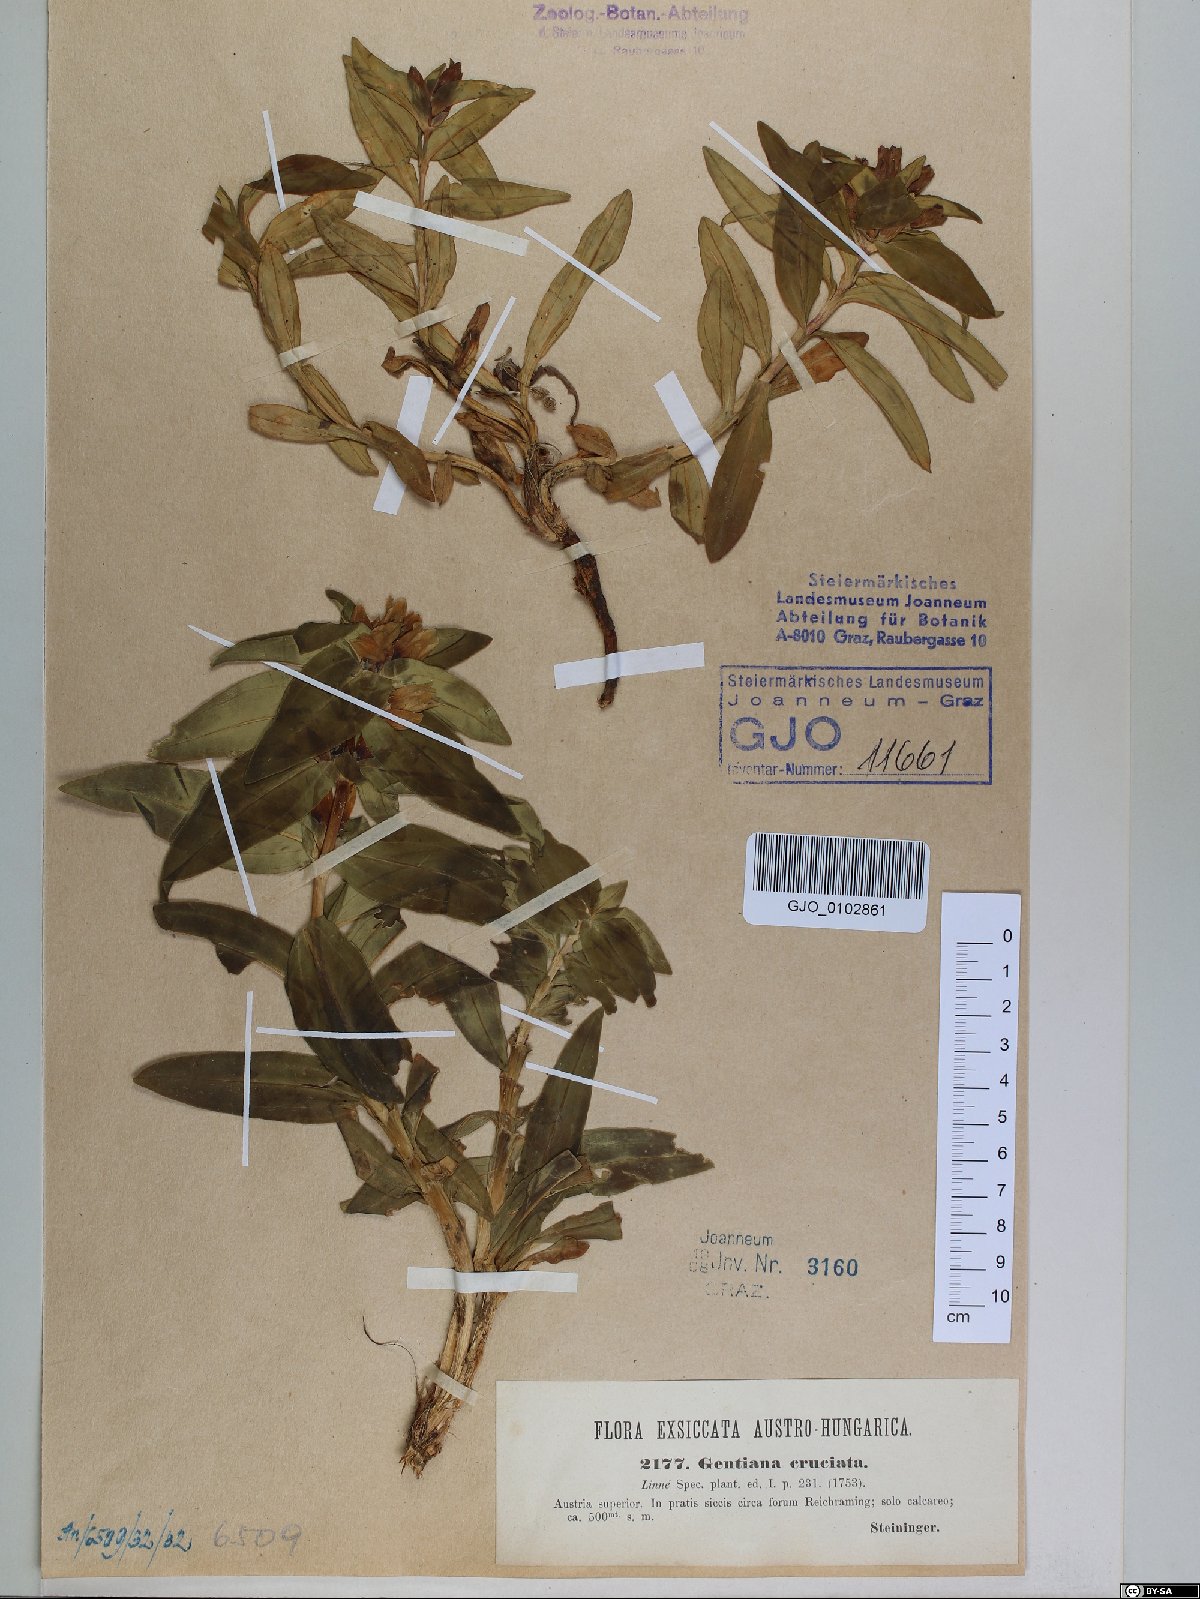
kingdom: Plantae
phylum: Tracheophyta
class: Magnoliopsida
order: Gentianales
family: Gentianaceae
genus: Gentiana
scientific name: Gentiana cruciata
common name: Cross gentian
